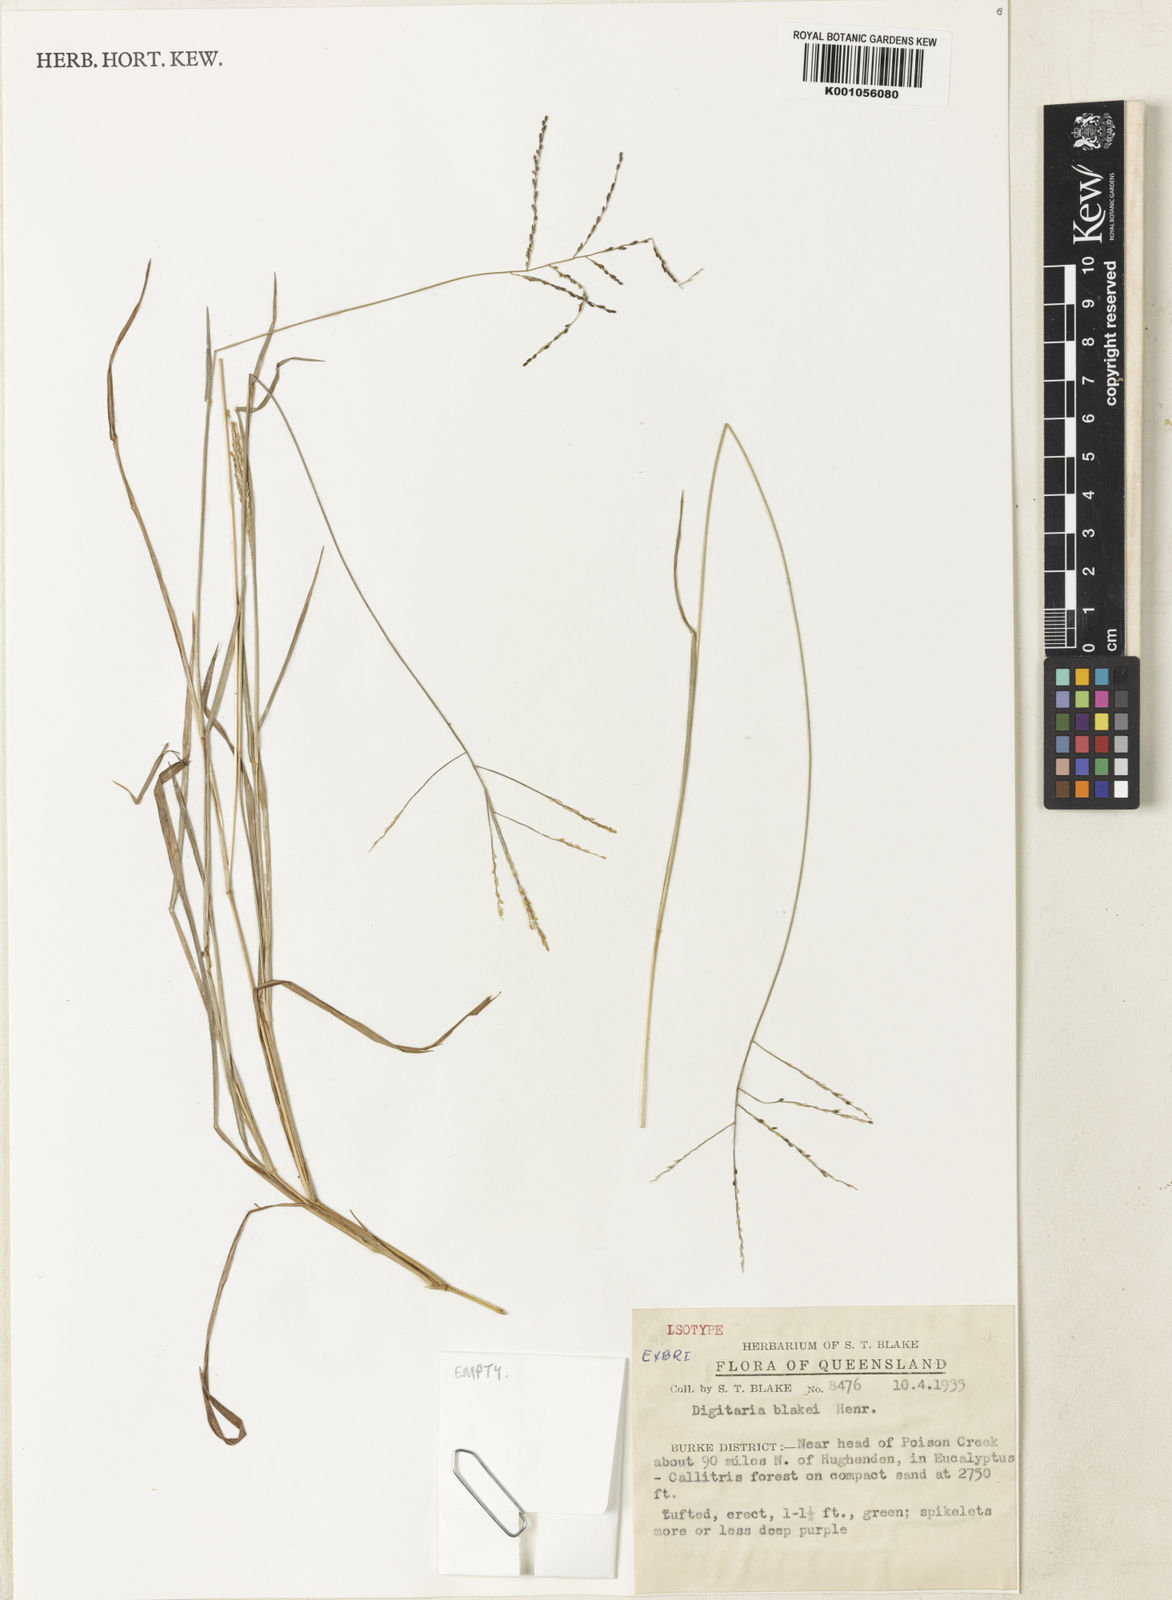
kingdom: Plantae
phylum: Tracheophyta
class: Liliopsida
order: Poales
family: Poaceae
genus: Digitaria
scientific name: Digitaria orbata
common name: Crabgrass
